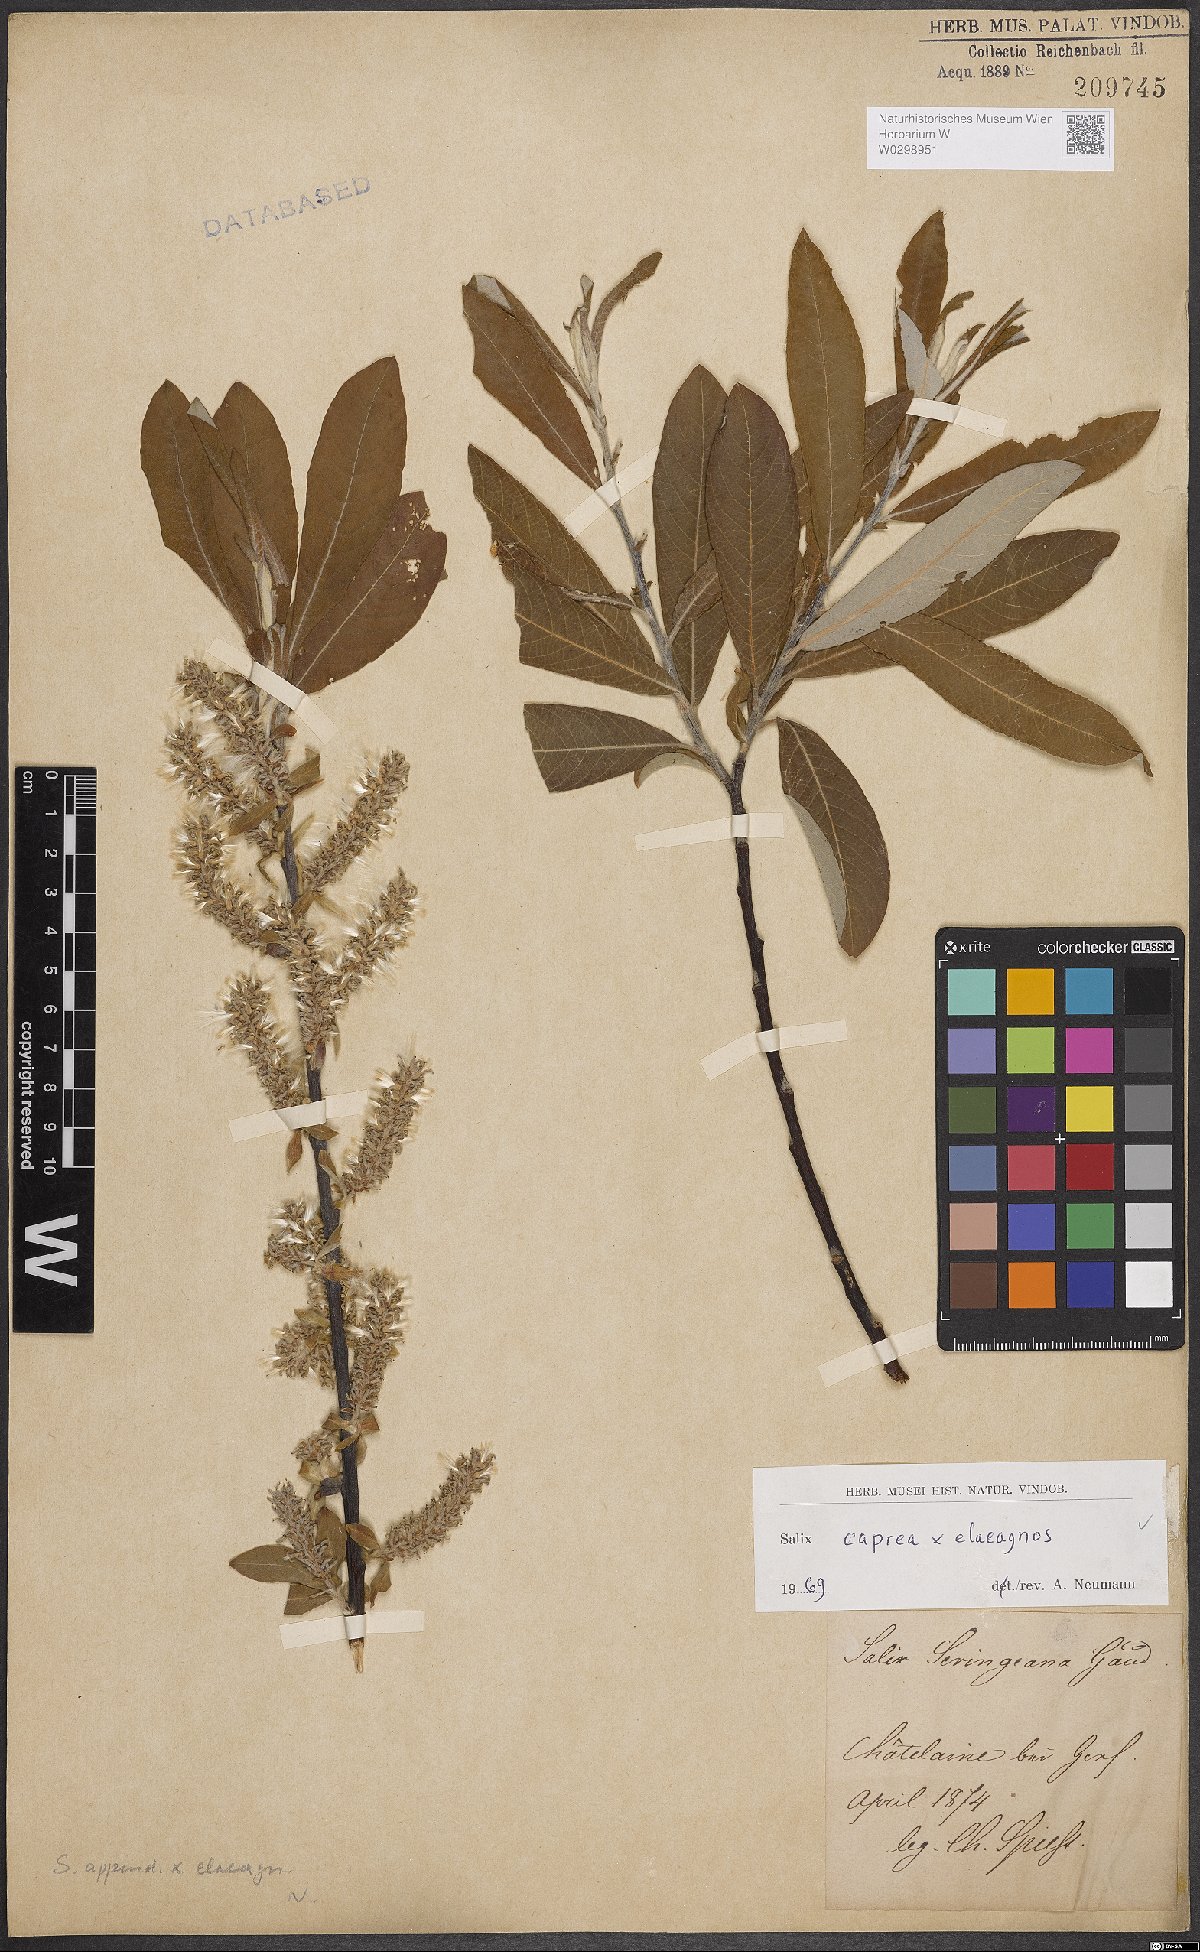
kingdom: Plantae
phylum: Tracheophyta
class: Magnoliopsida
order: Malpighiales
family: Salicaceae
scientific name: Salicaceae
